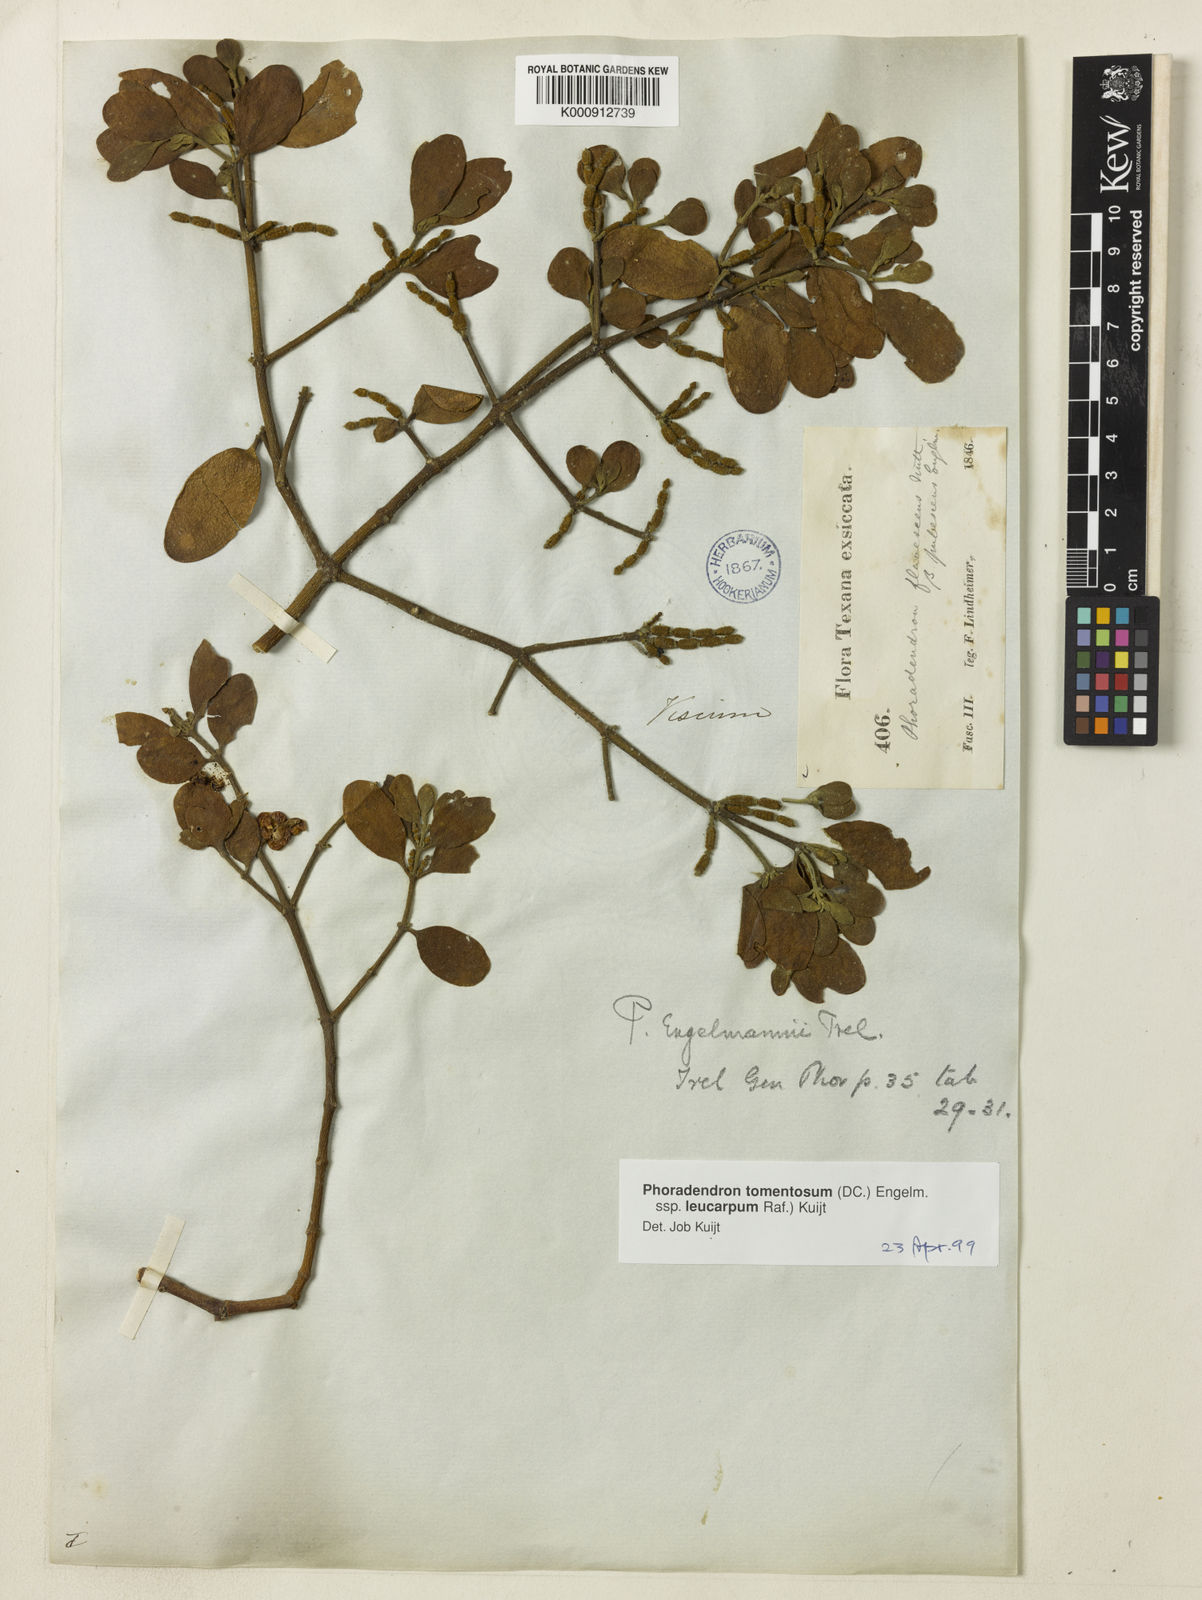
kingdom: Plantae
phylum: Tracheophyta
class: Magnoliopsida
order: Santalales
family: Viscaceae
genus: Phoradendron
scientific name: Phoradendron
